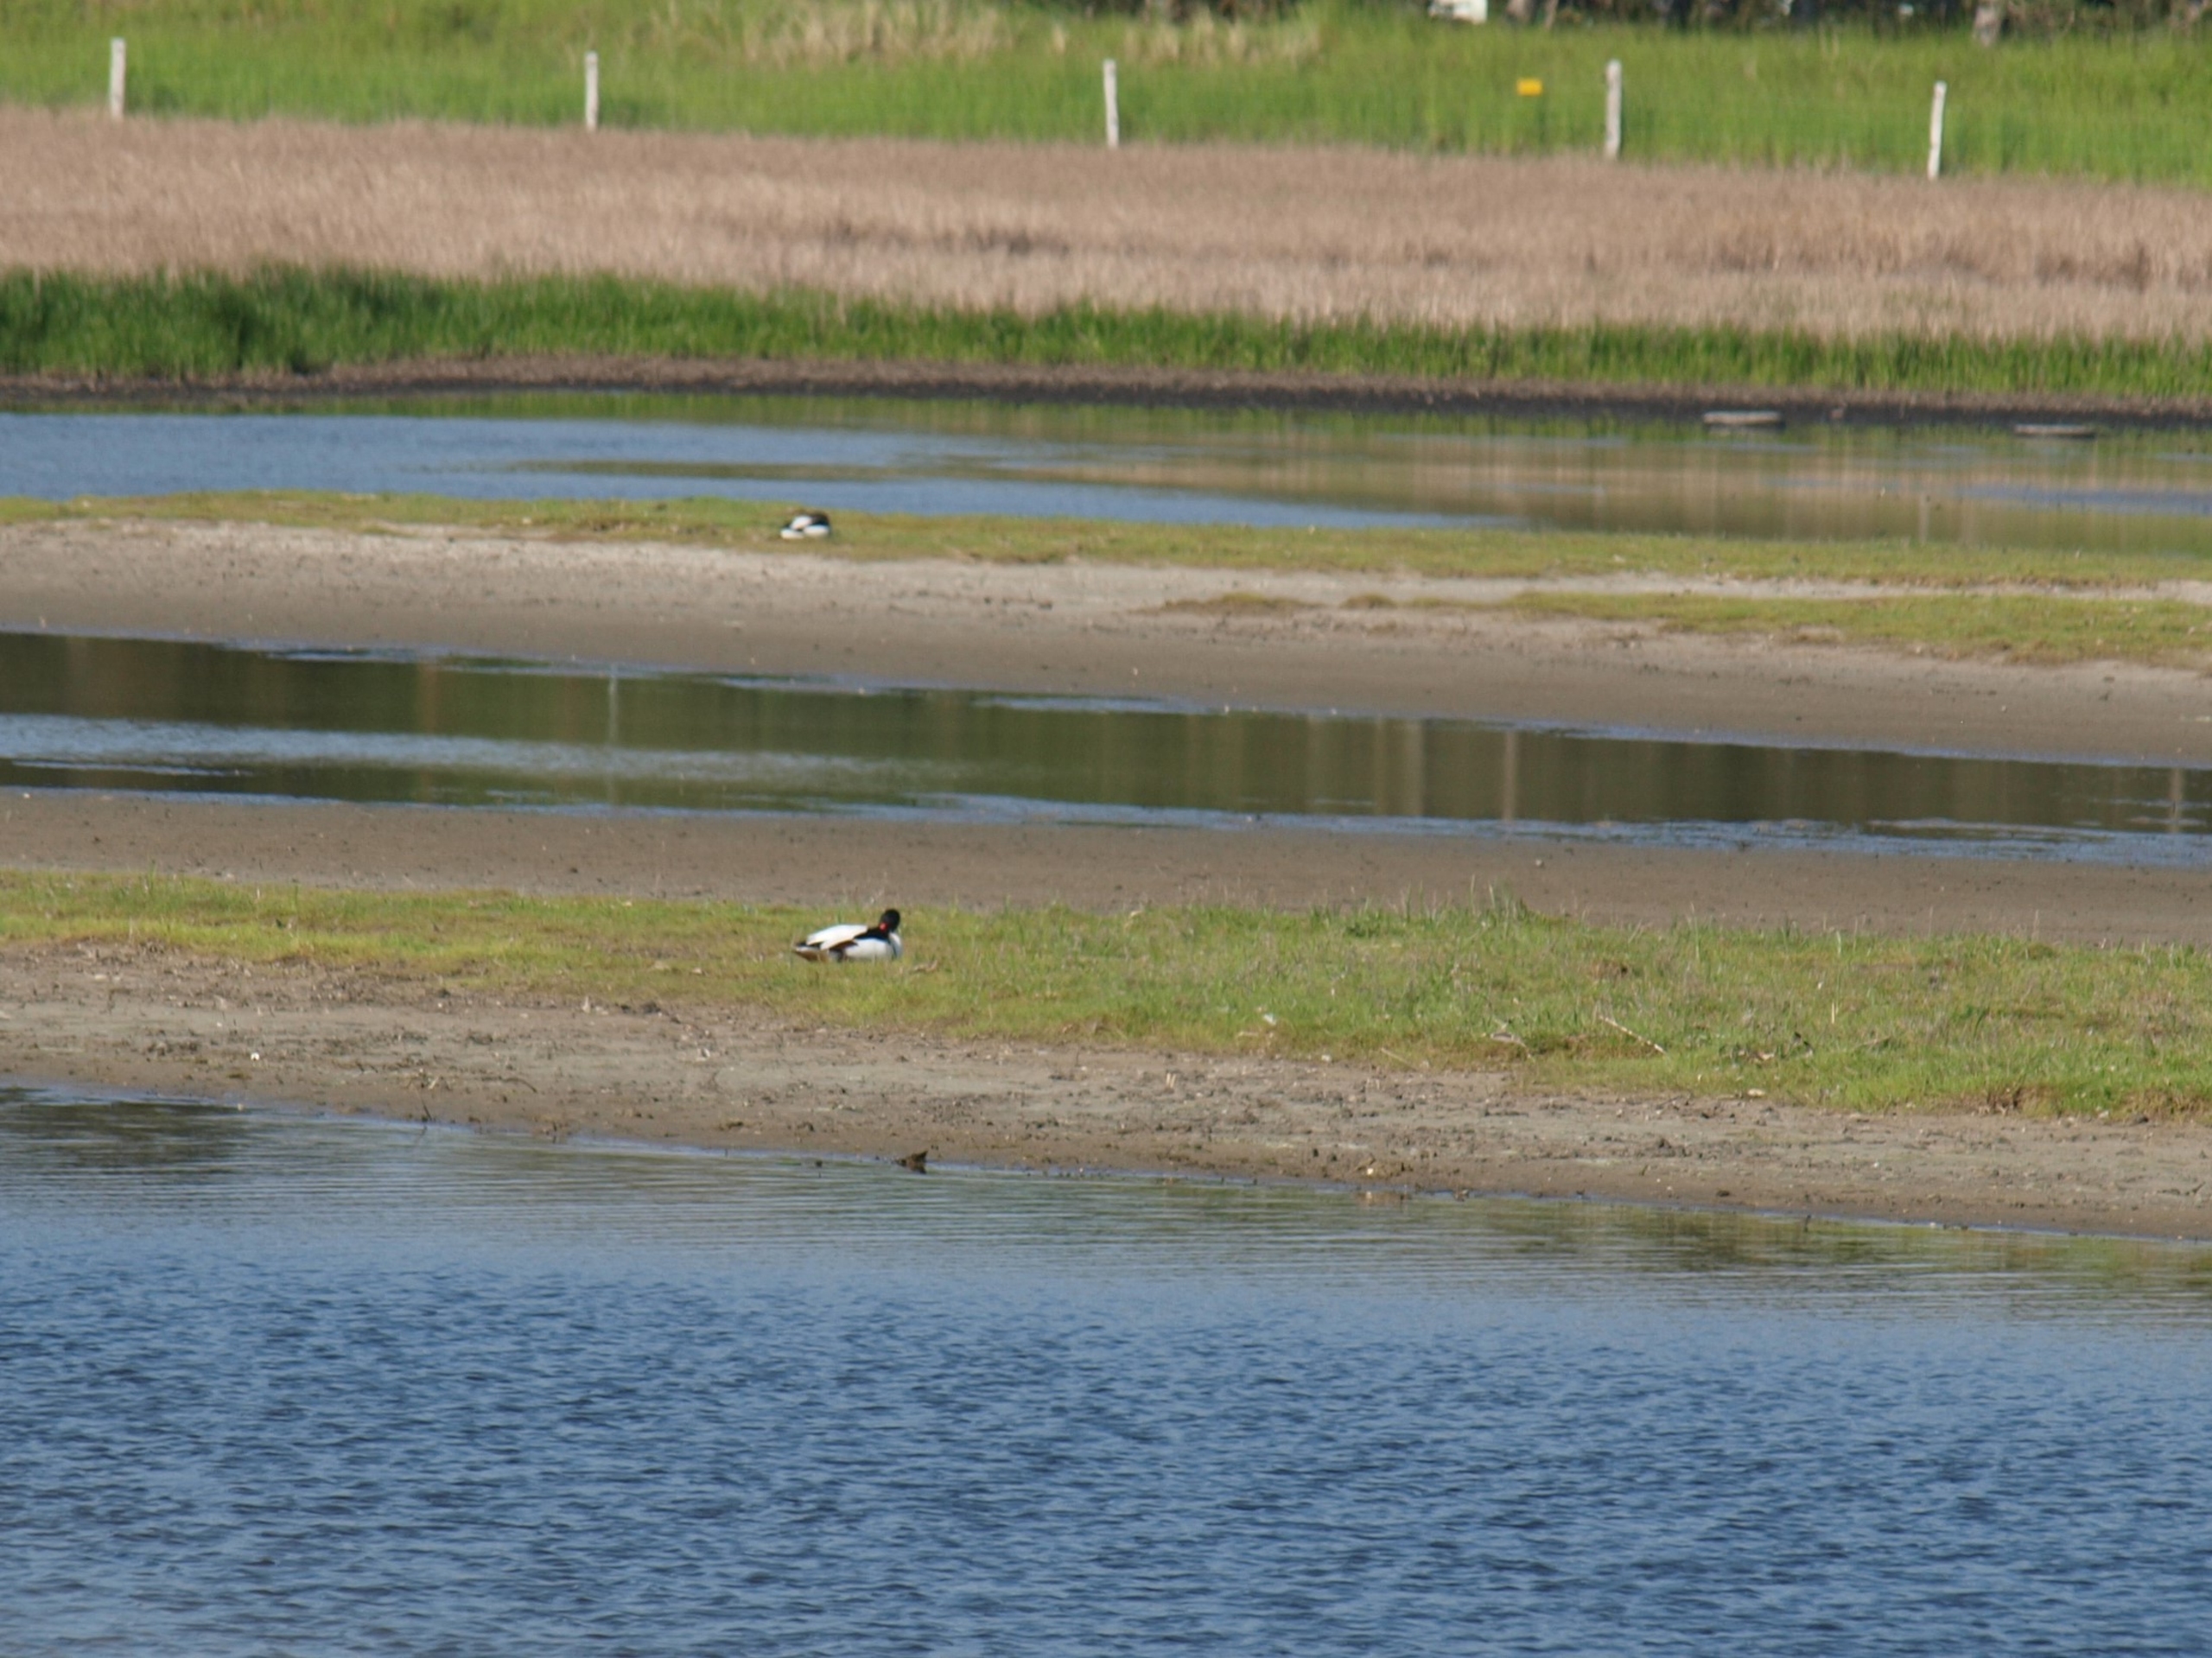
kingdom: Animalia
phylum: Chordata
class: Aves
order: Anseriformes
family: Anatidae
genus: Tadorna
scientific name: Tadorna tadorna
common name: Gravand
